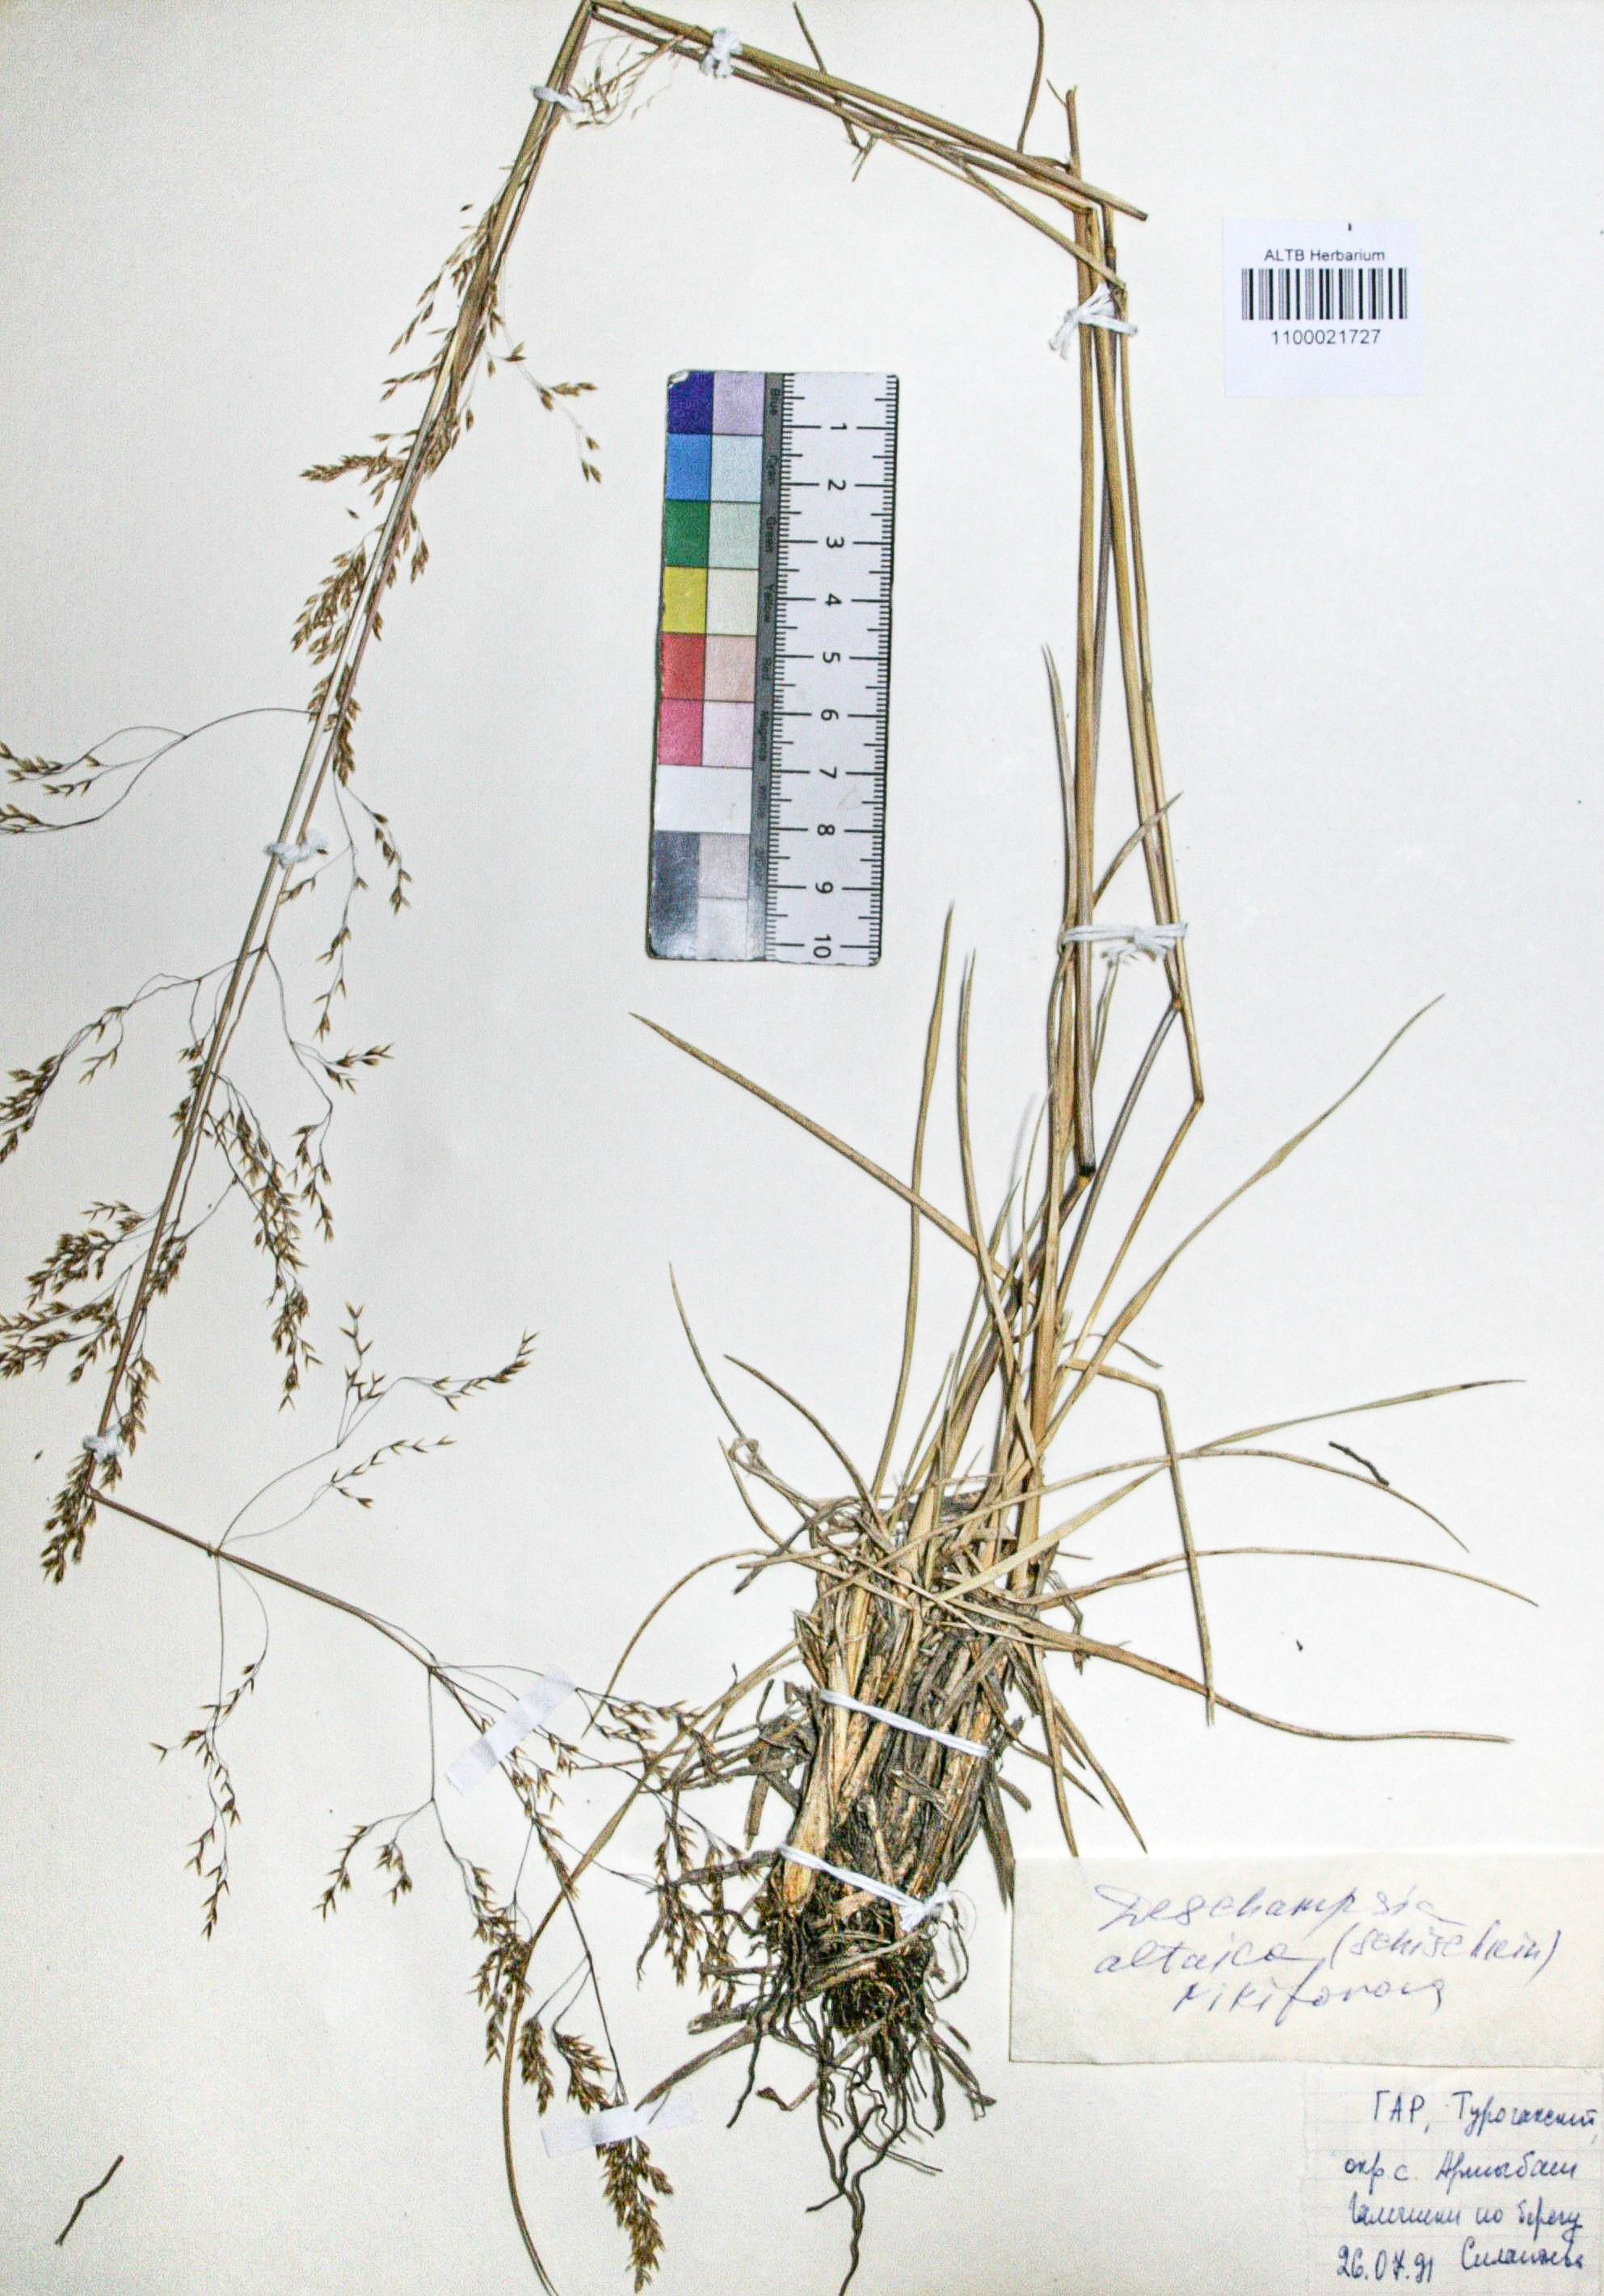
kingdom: Plantae
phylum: Tracheophyta
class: Liliopsida
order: Poales
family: Poaceae
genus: Deschampsia
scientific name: Deschampsia cespitosa
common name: Tufted hair-grass
